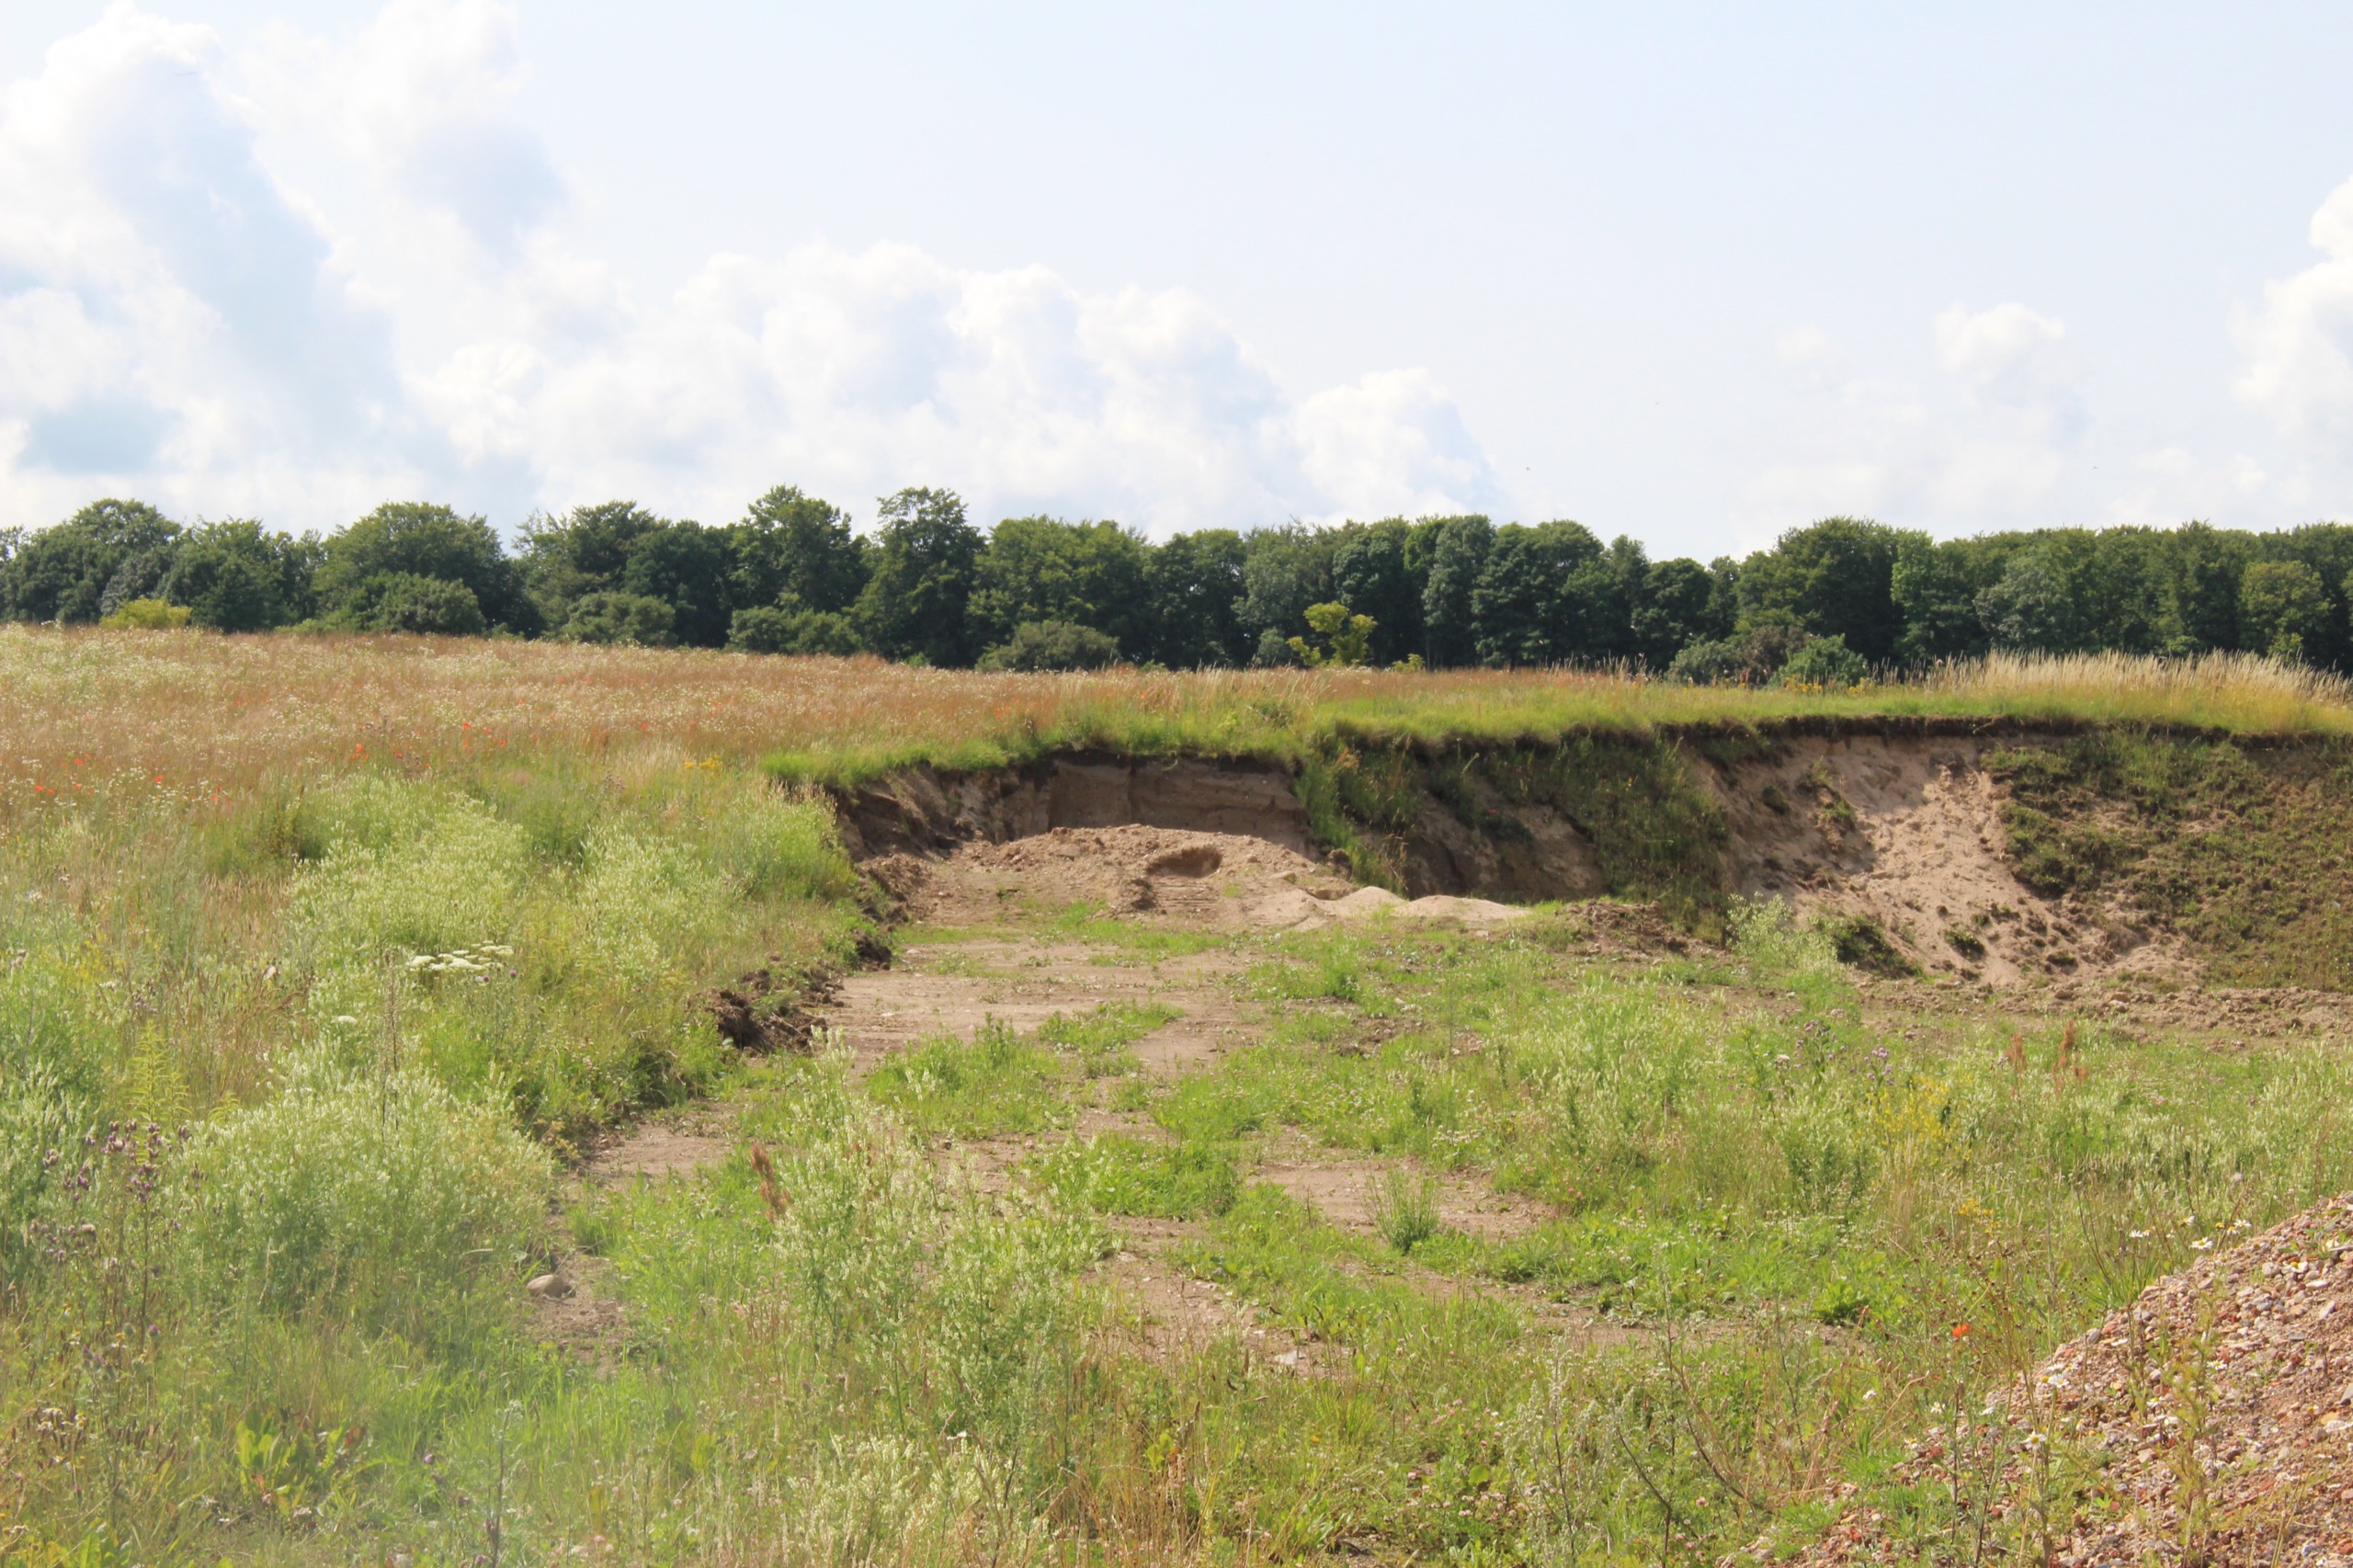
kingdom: Animalia
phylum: Chordata
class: Aves
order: Passeriformes
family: Hirundinidae
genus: Riparia
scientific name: Riparia riparia
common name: Digesvale
